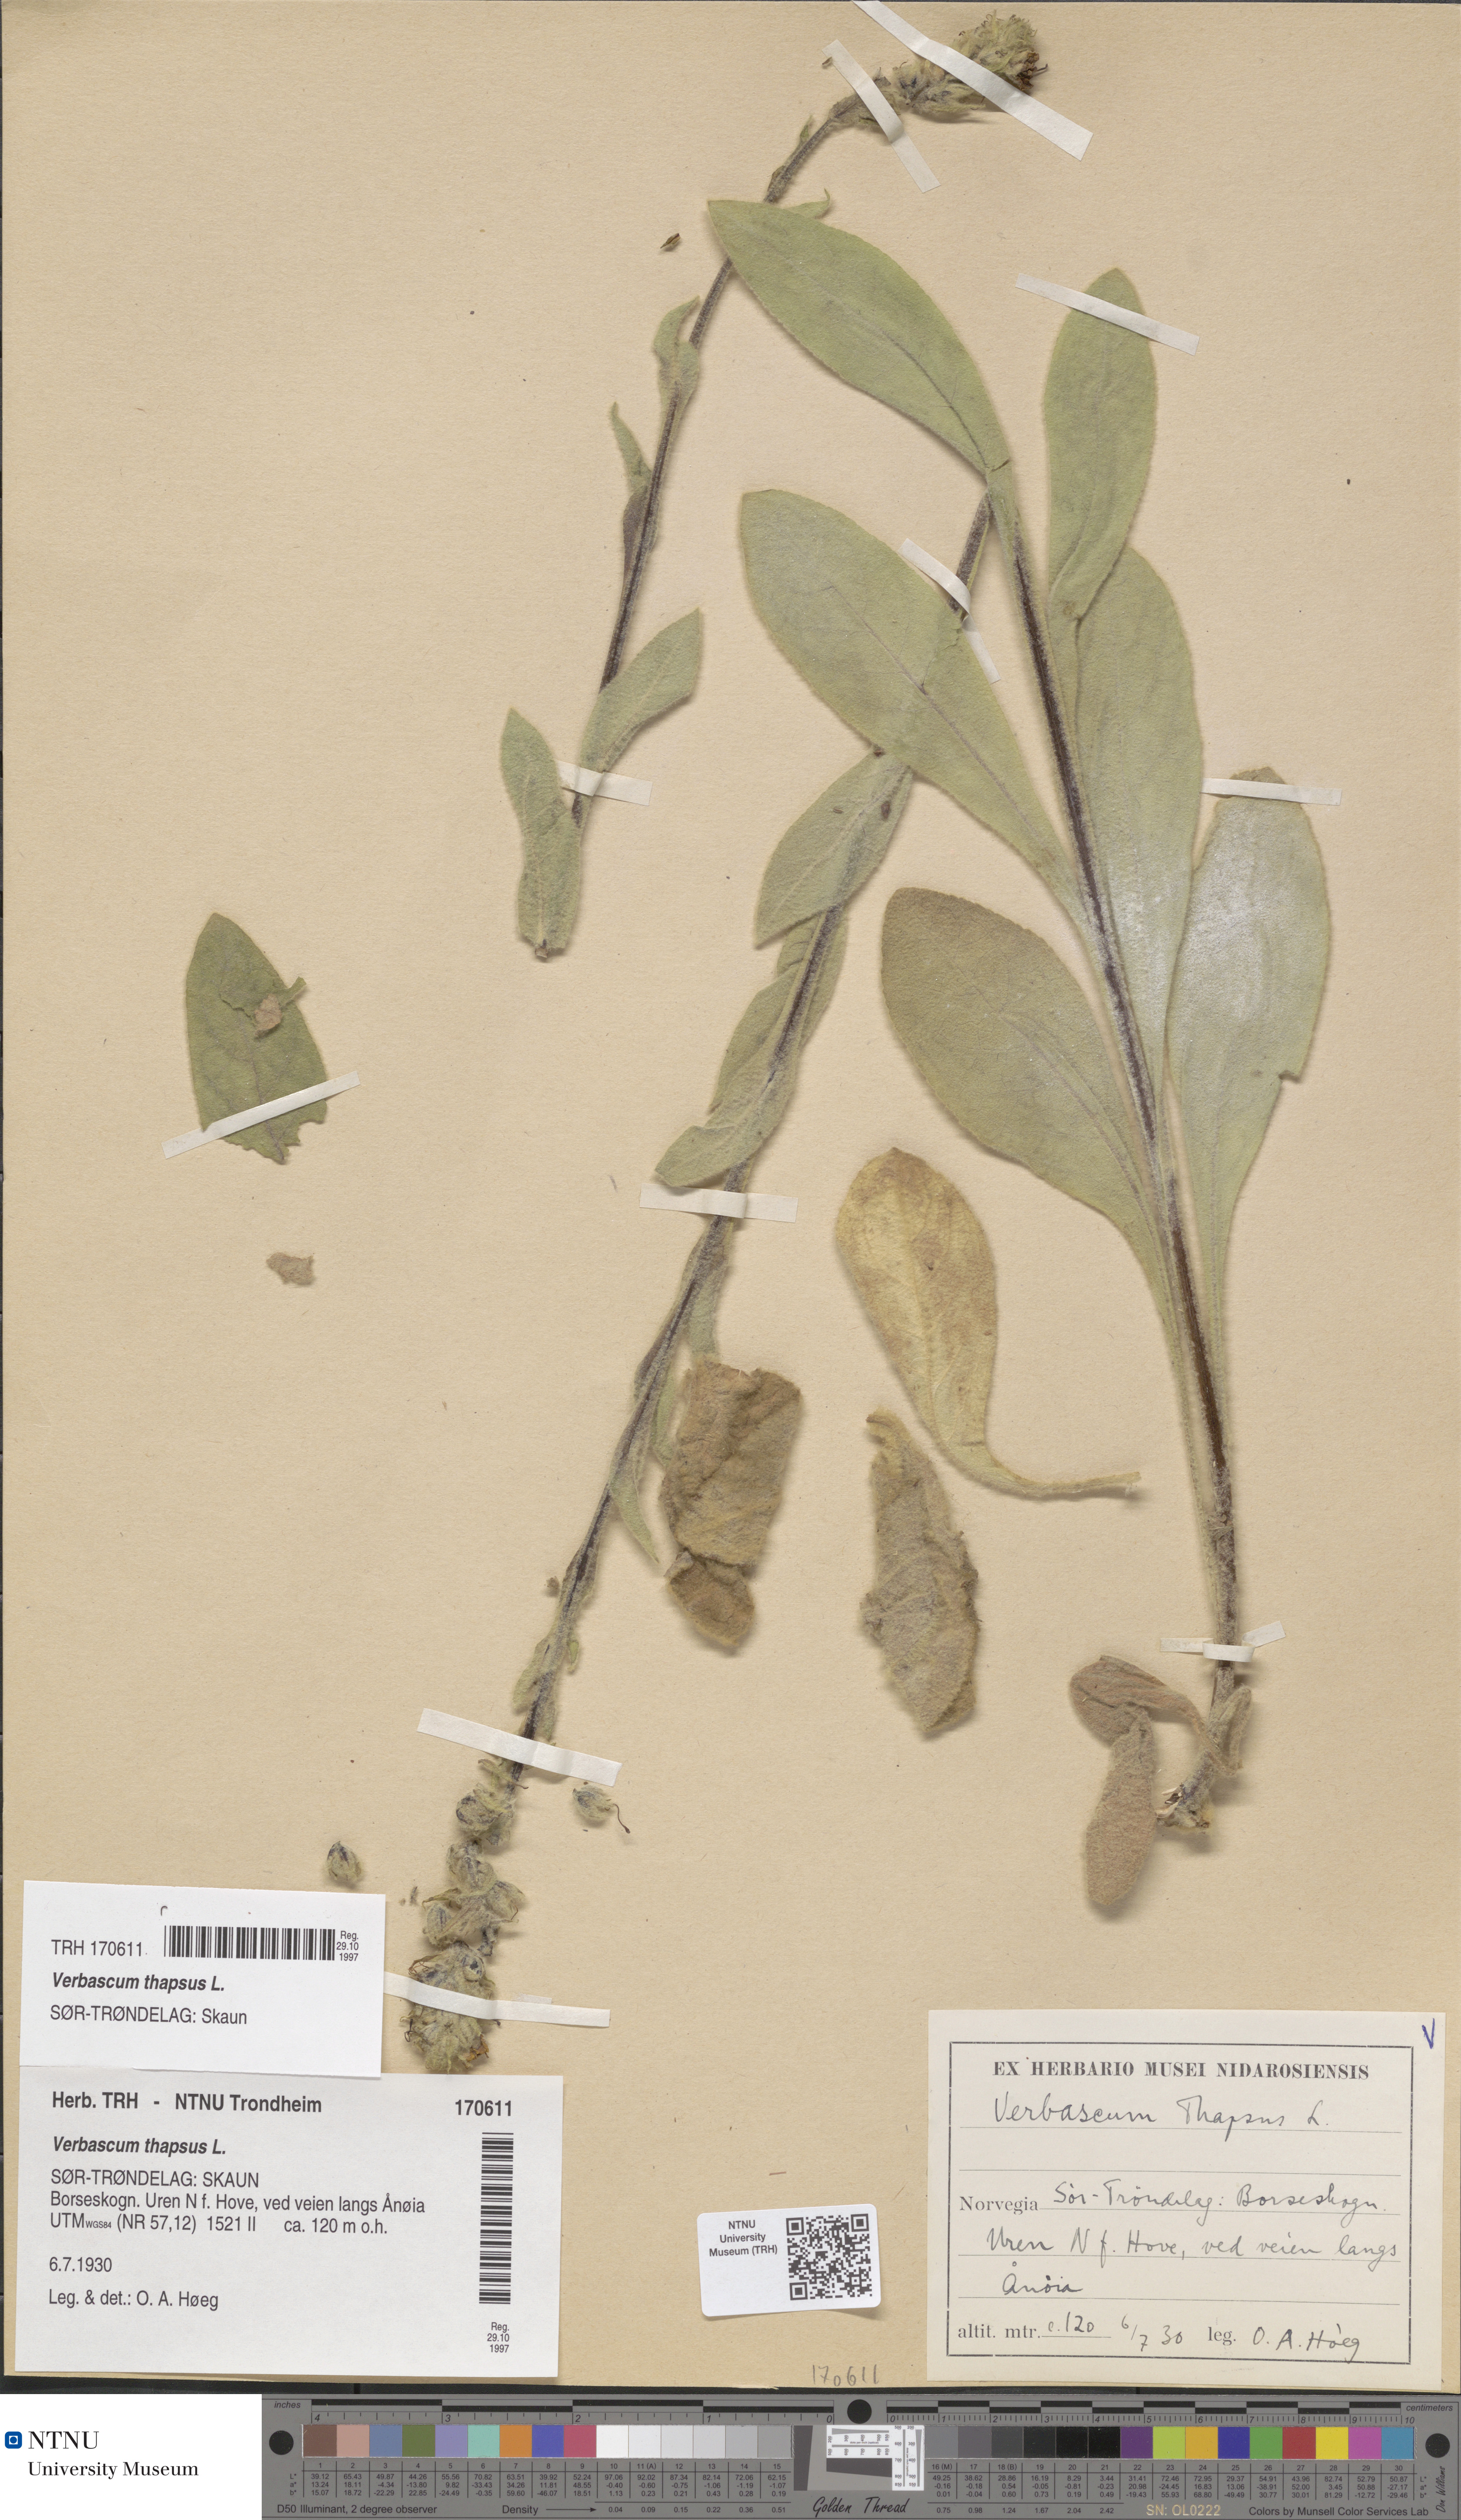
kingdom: Plantae
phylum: Tracheophyta
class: Magnoliopsida
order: Lamiales
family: Scrophulariaceae
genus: Verbascum
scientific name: Verbascum thapsus
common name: Common mullein
